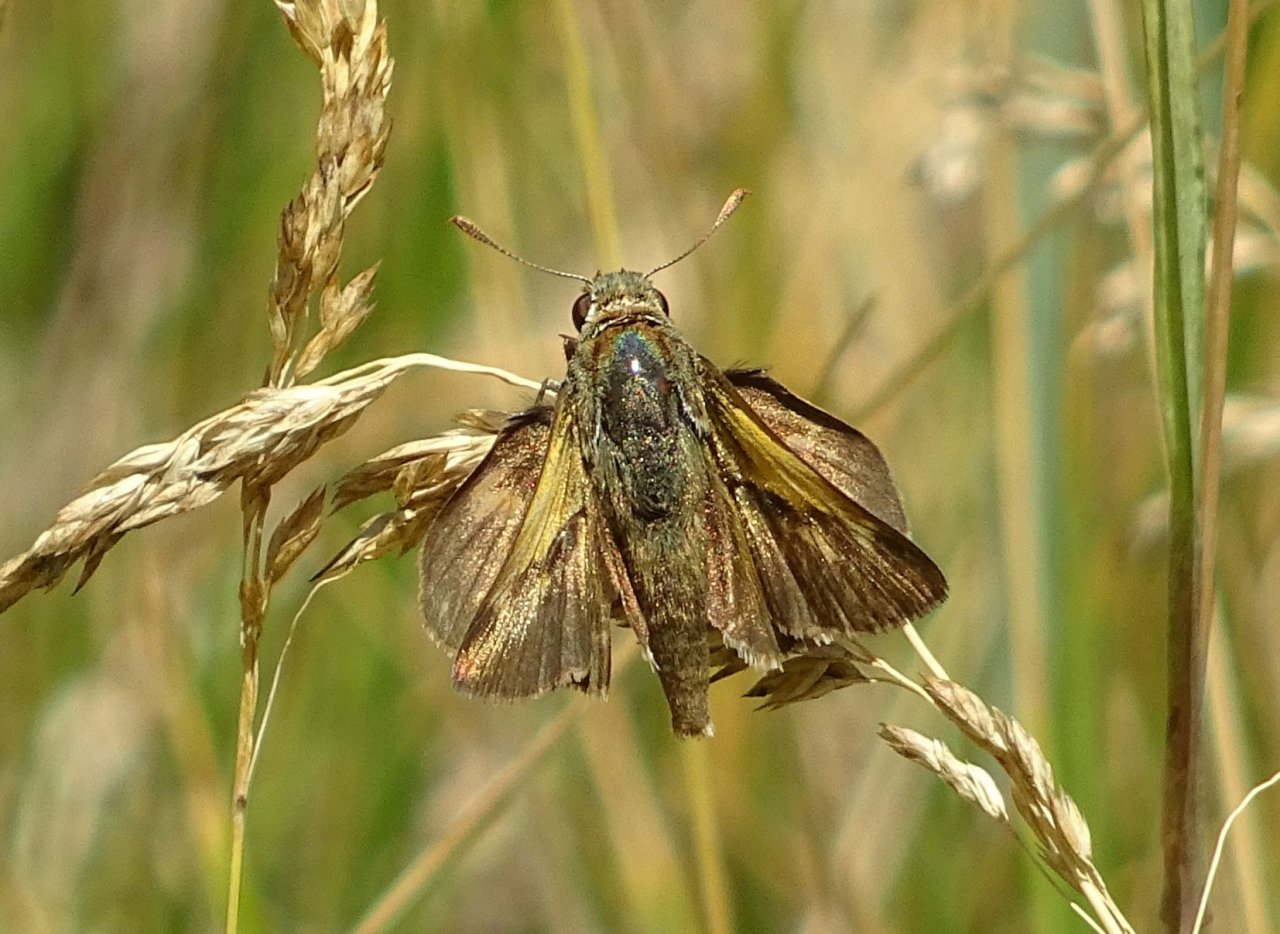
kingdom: Animalia
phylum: Arthropoda
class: Insecta
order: Lepidoptera
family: Hesperiidae
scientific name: Hesperiidae
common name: Skippers
